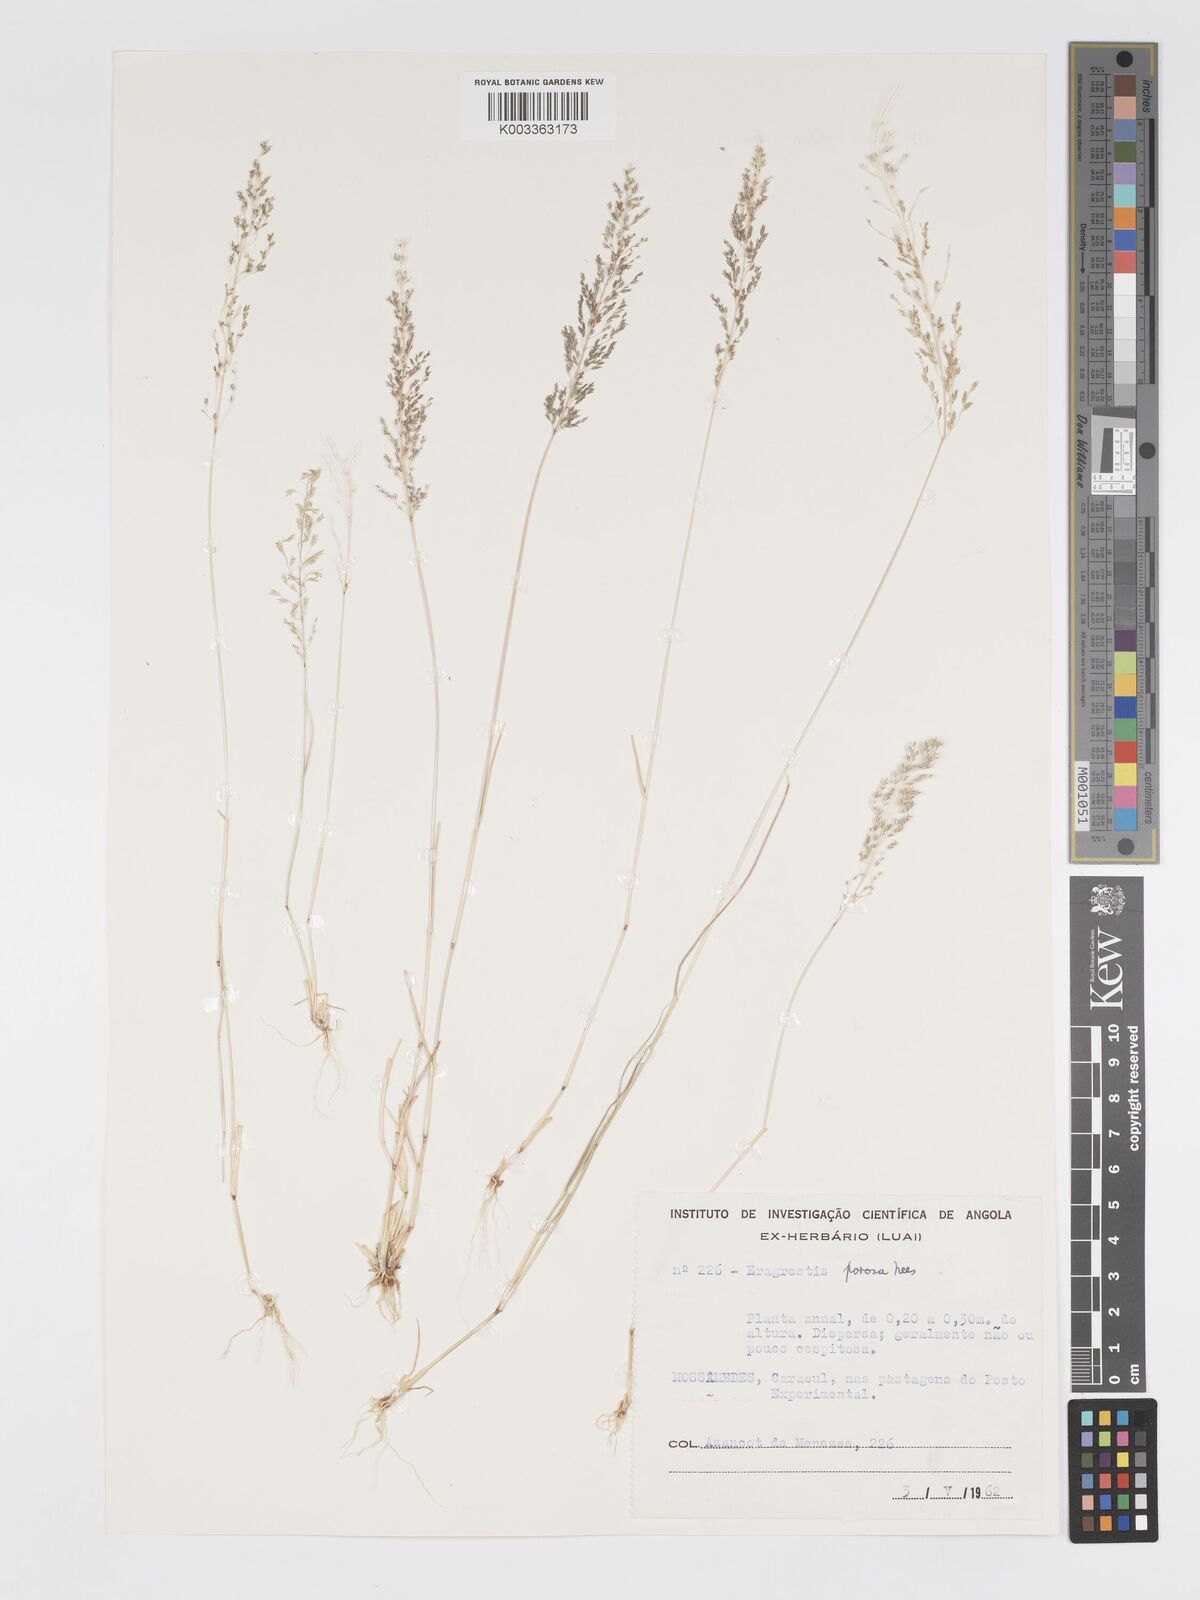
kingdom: Plantae
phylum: Tracheophyta
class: Liliopsida
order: Poales
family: Poaceae
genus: Eragrostis
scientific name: Eragrostis cylindriflora
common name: Cylinderflower lovegrass
